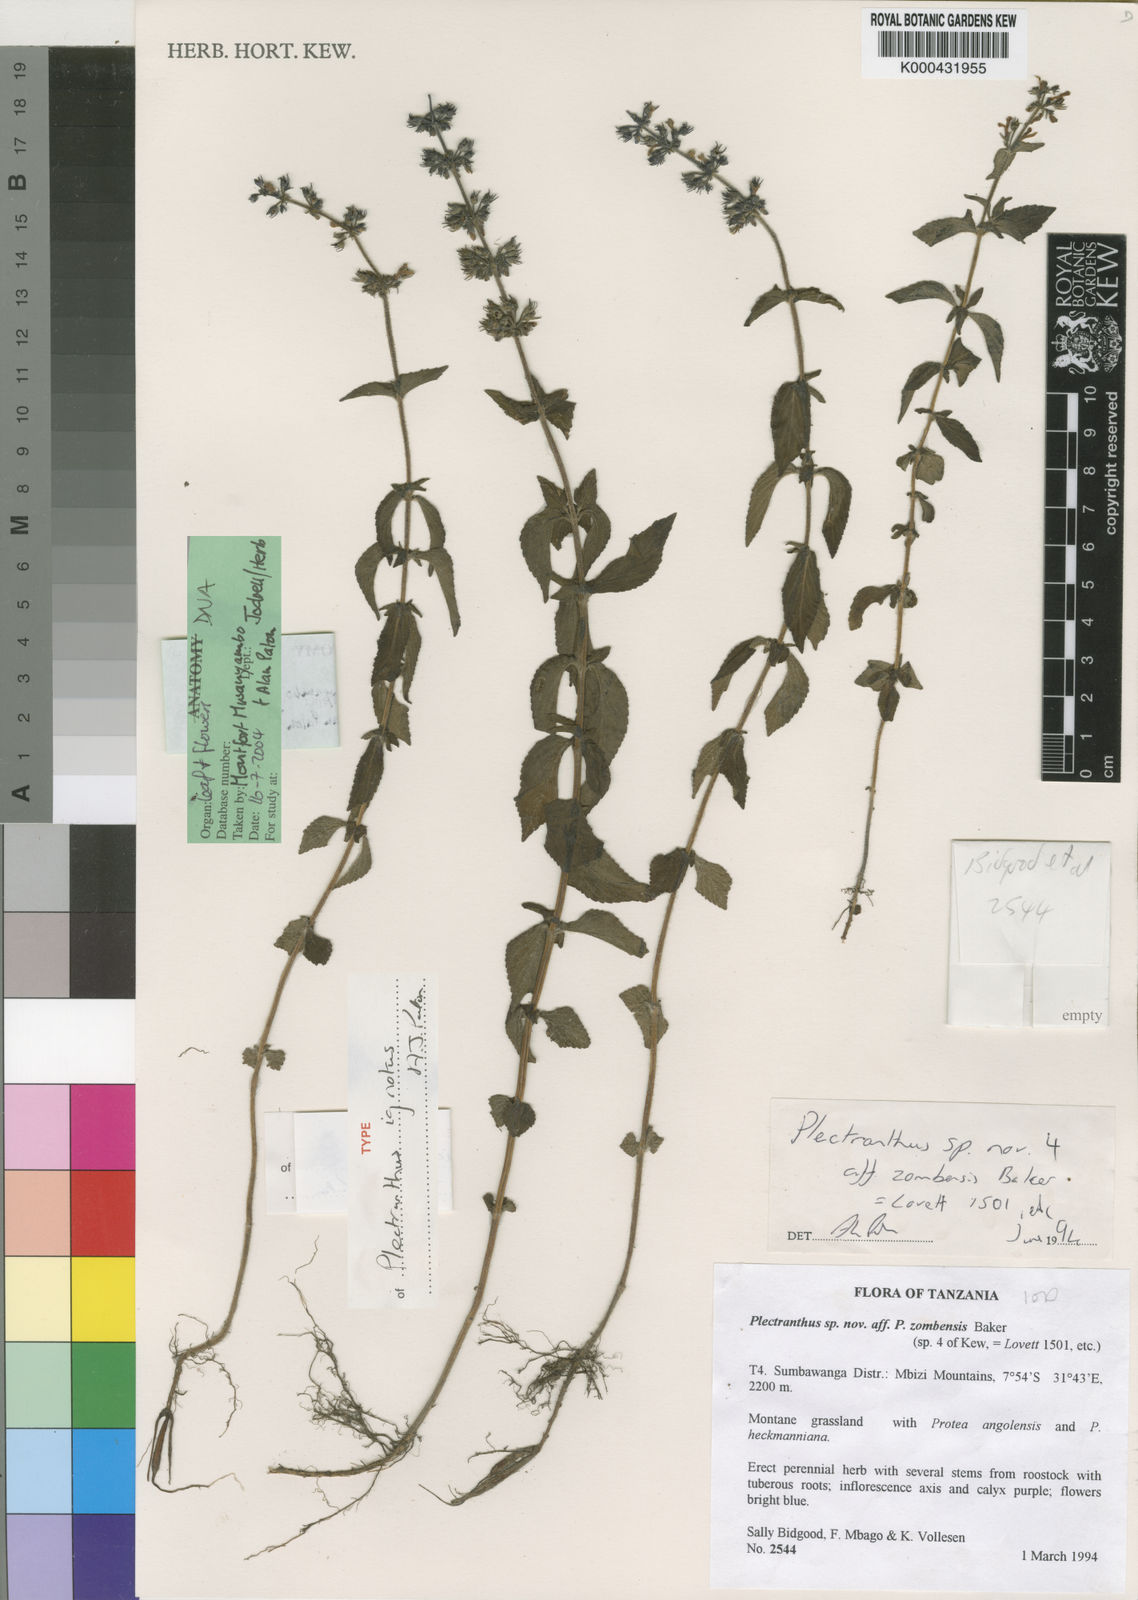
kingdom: Plantae
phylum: Tracheophyta
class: Magnoliopsida
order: Lamiales
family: Lamiaceae
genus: Coleus
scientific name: Coleus ignotus
